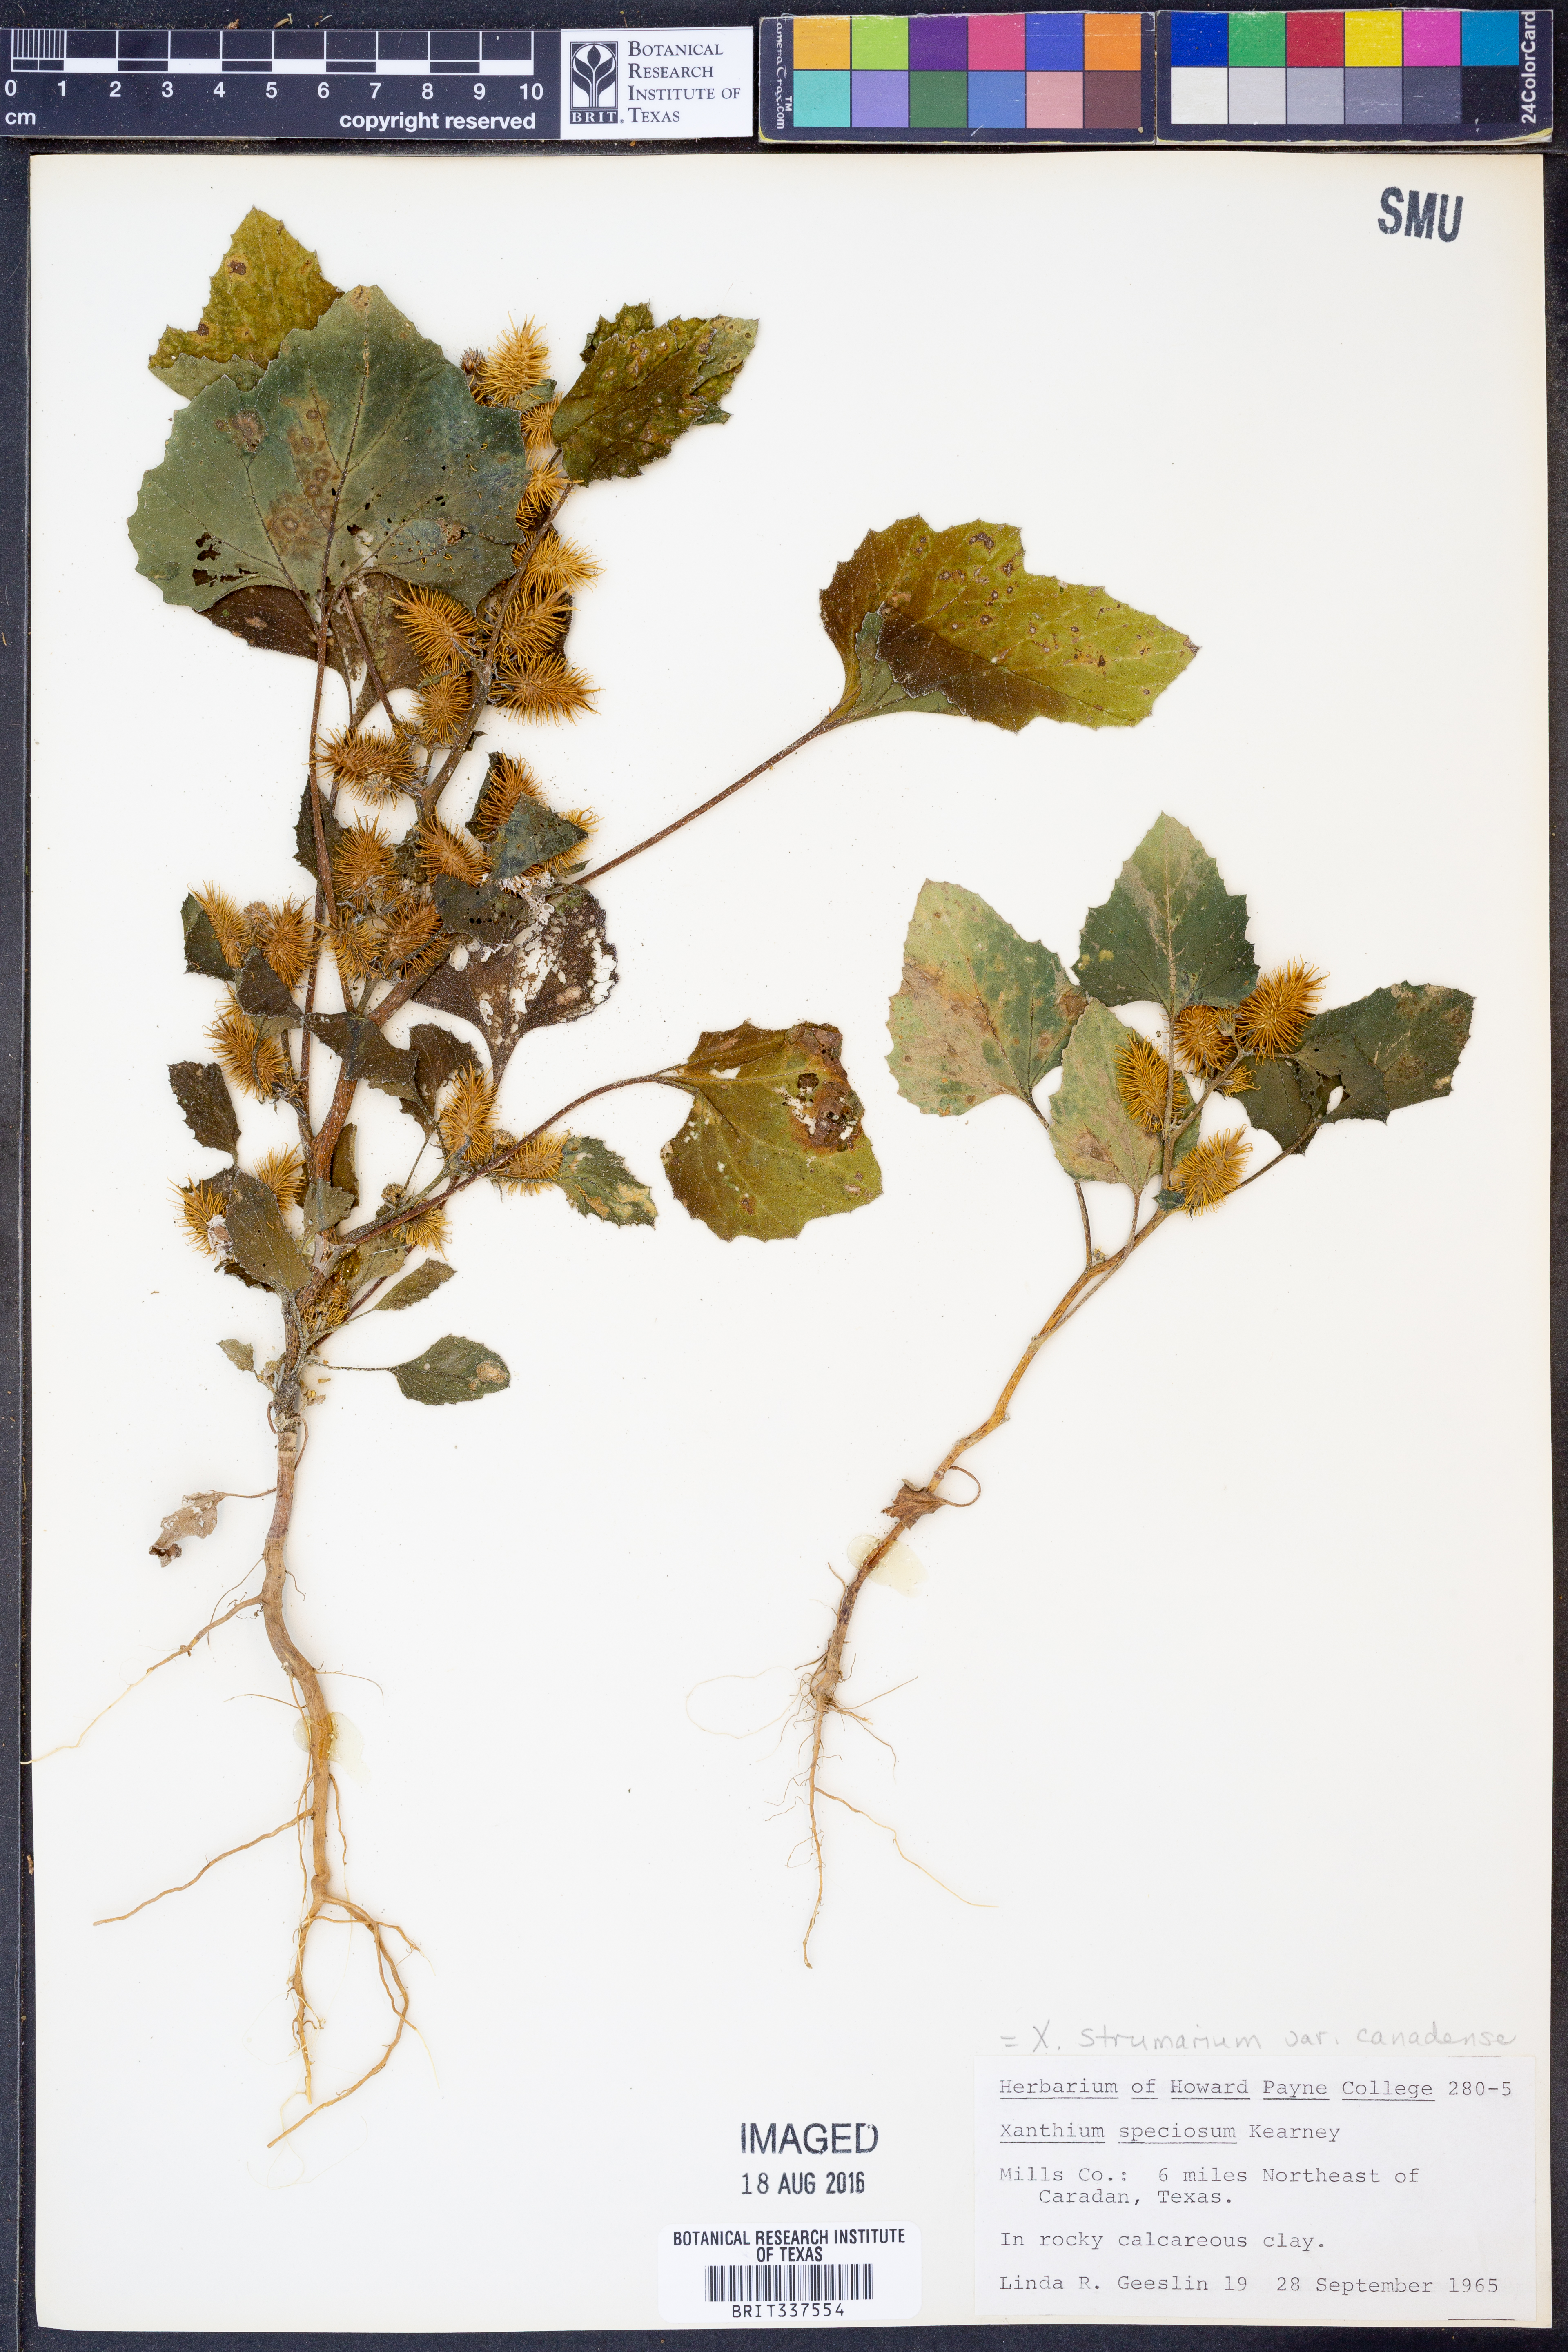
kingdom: Plantae
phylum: Tracheophyta
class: Magnoliopsida
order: Asterales
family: Asteraceae
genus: Xanthium
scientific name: Xanthium orientale
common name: Californian burr
